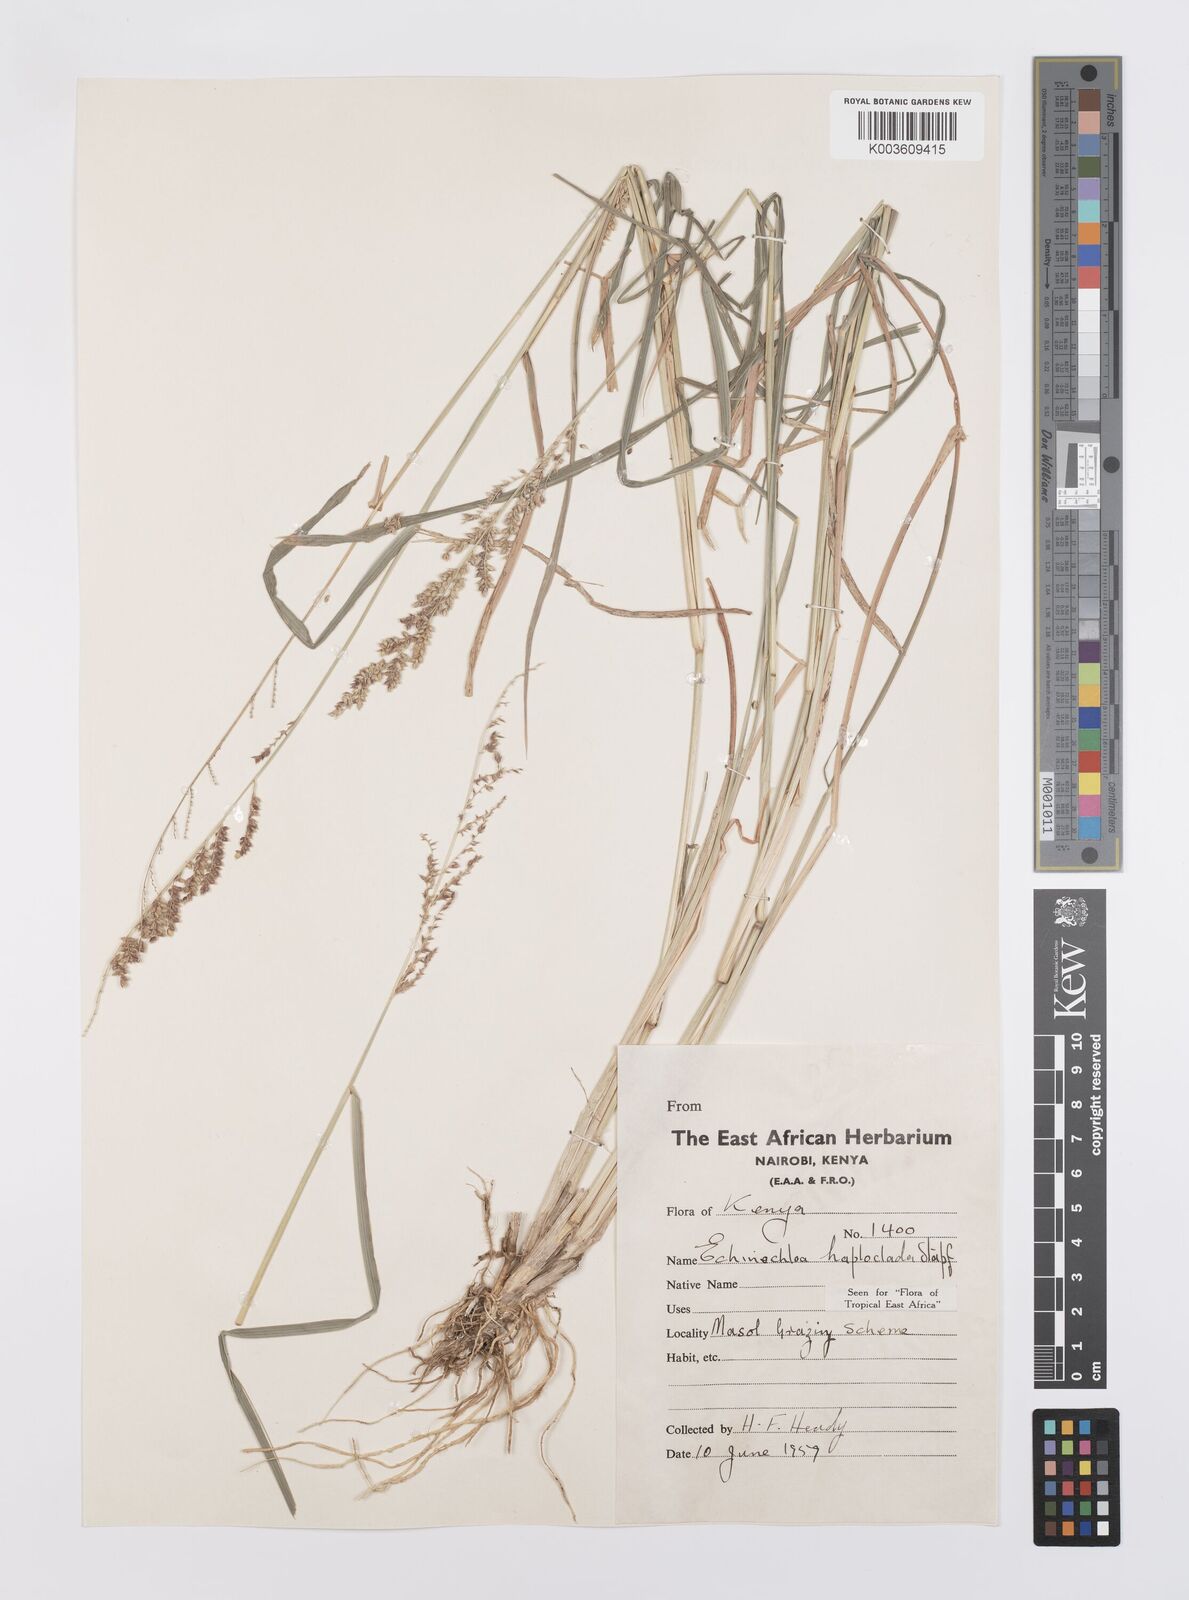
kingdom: Plantae
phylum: Tracheophyta
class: Liliopsida
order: Poales
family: Poaceae
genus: Echinochloa
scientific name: Echinochloa haploclada
